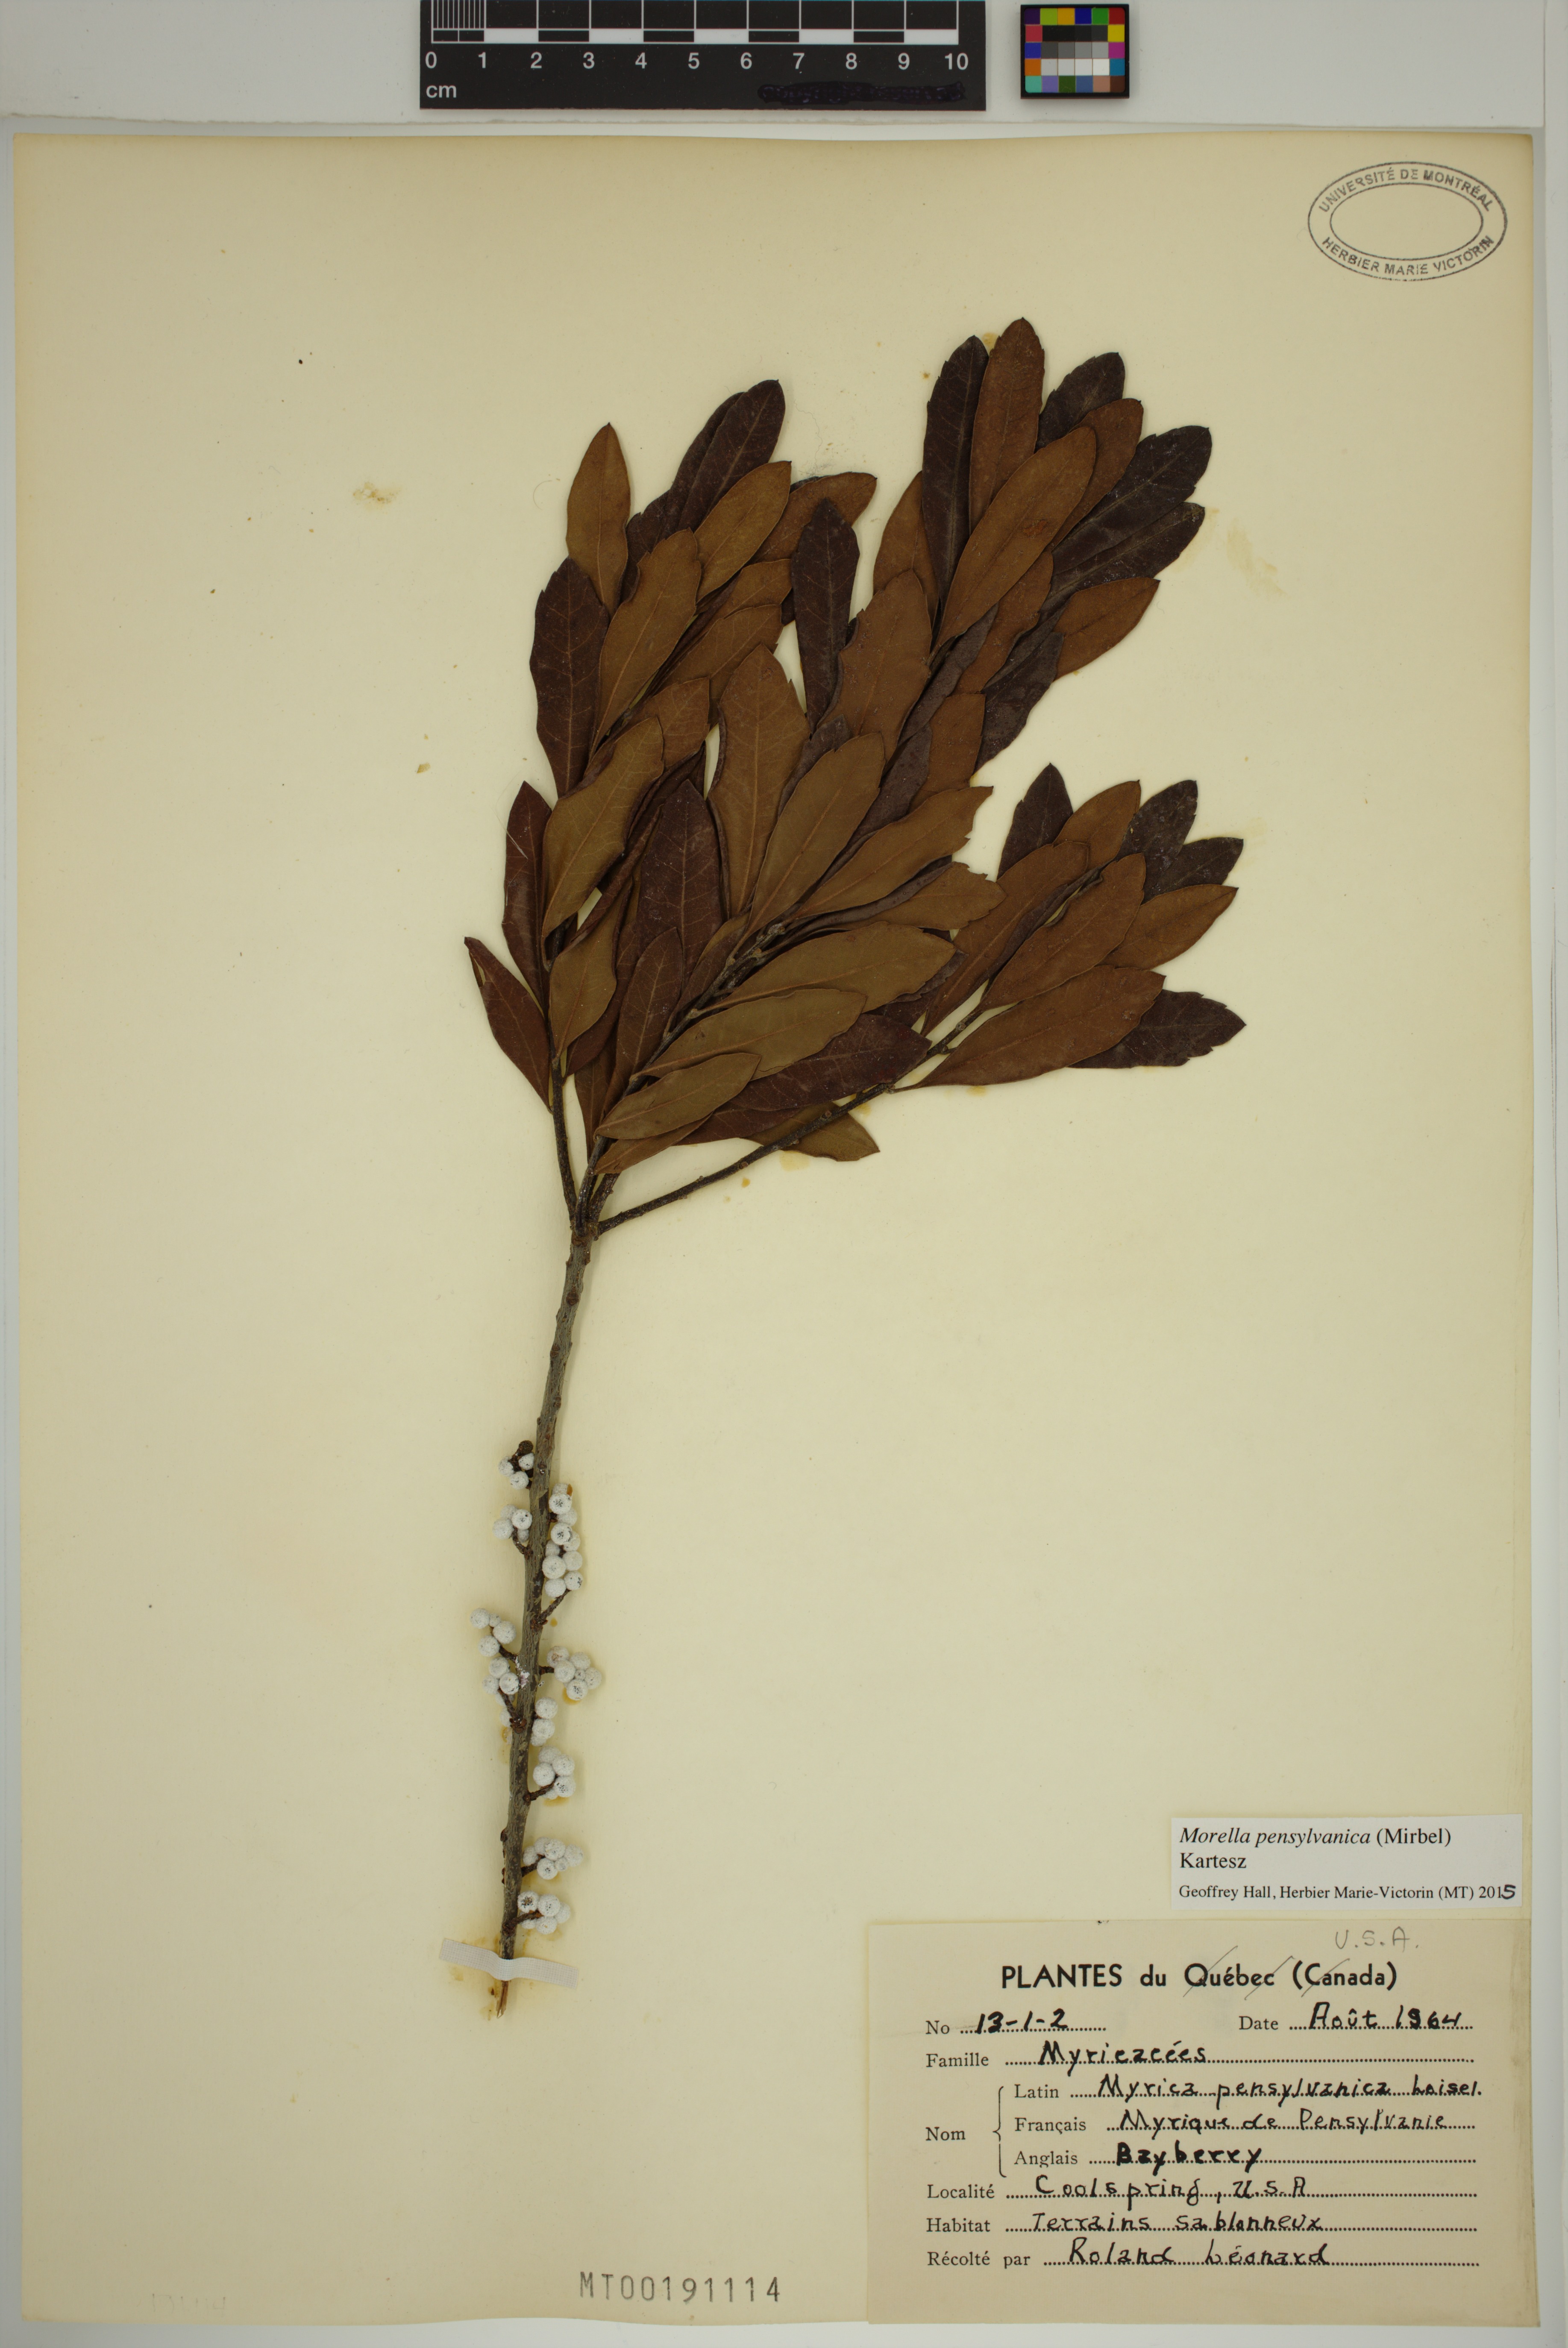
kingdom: Plantae
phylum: Tracheophyta
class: Magnoliopsida
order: Fagales
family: Myricaceae
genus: Morella
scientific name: Morella pensylvanica
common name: Northern bayberry
